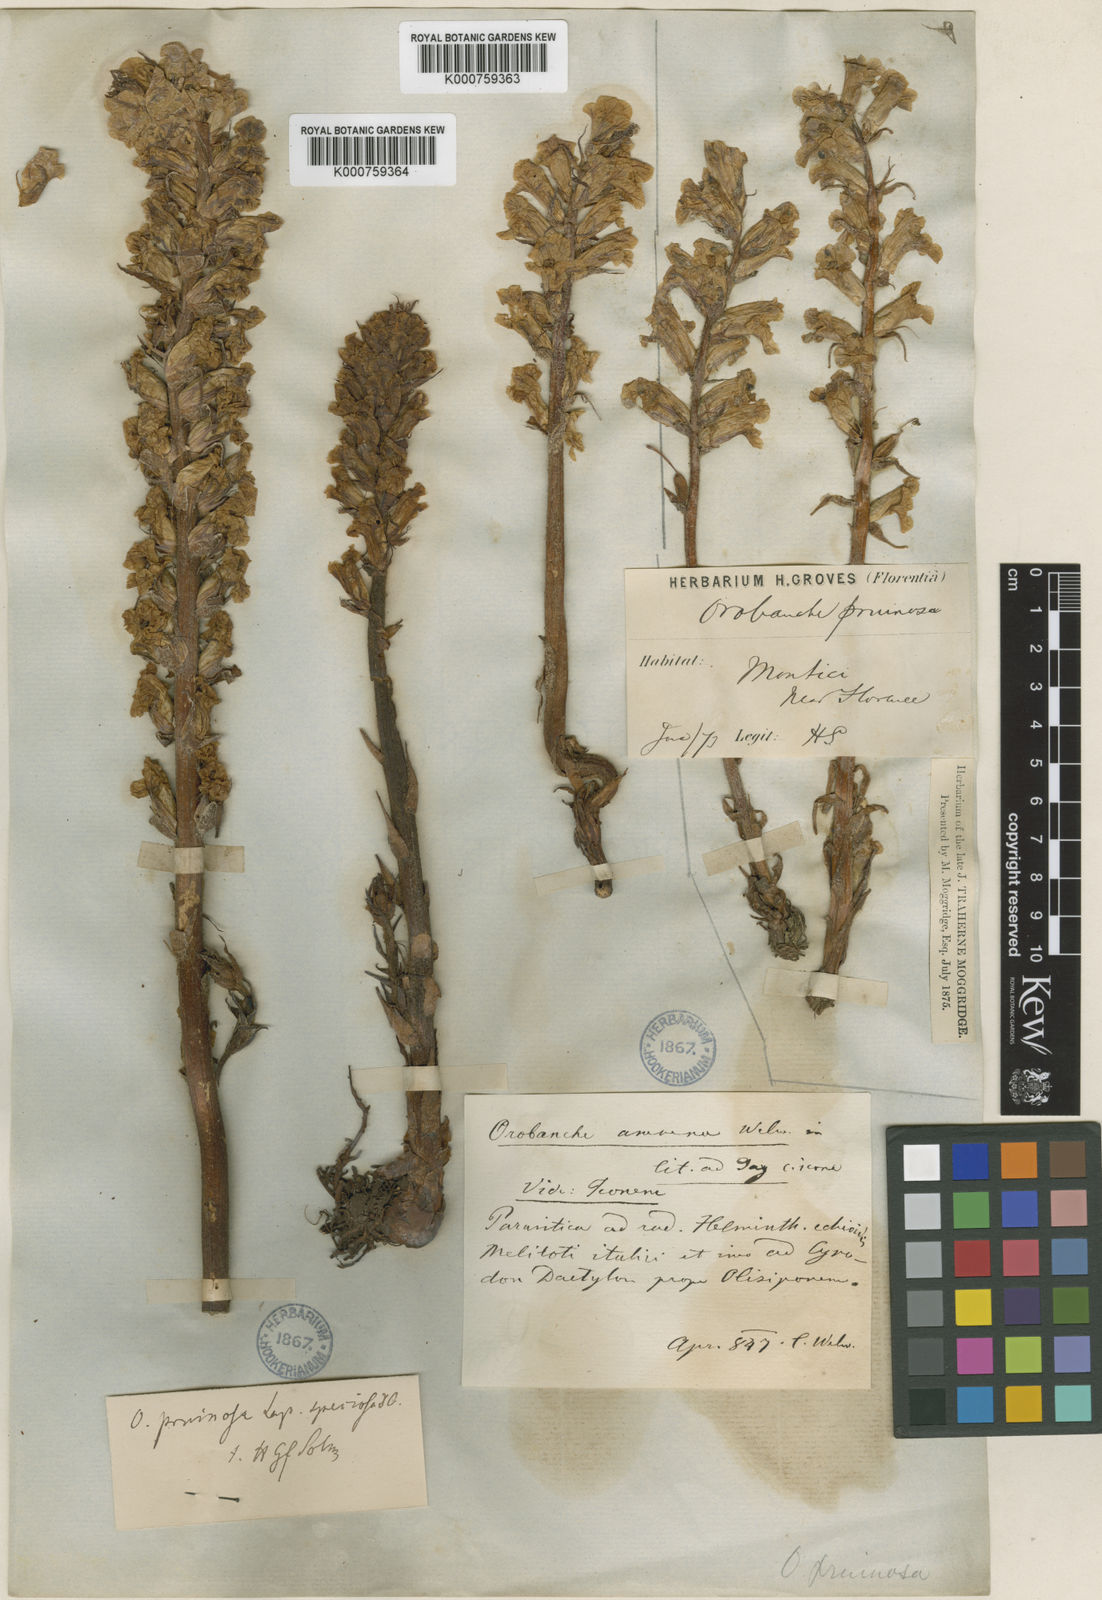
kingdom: Plantae
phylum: Tracheophyta
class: Magnoliopsida
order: Lamiales
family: Gesneriaceae
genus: Codonanthe
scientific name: Codonanthe gracilis
